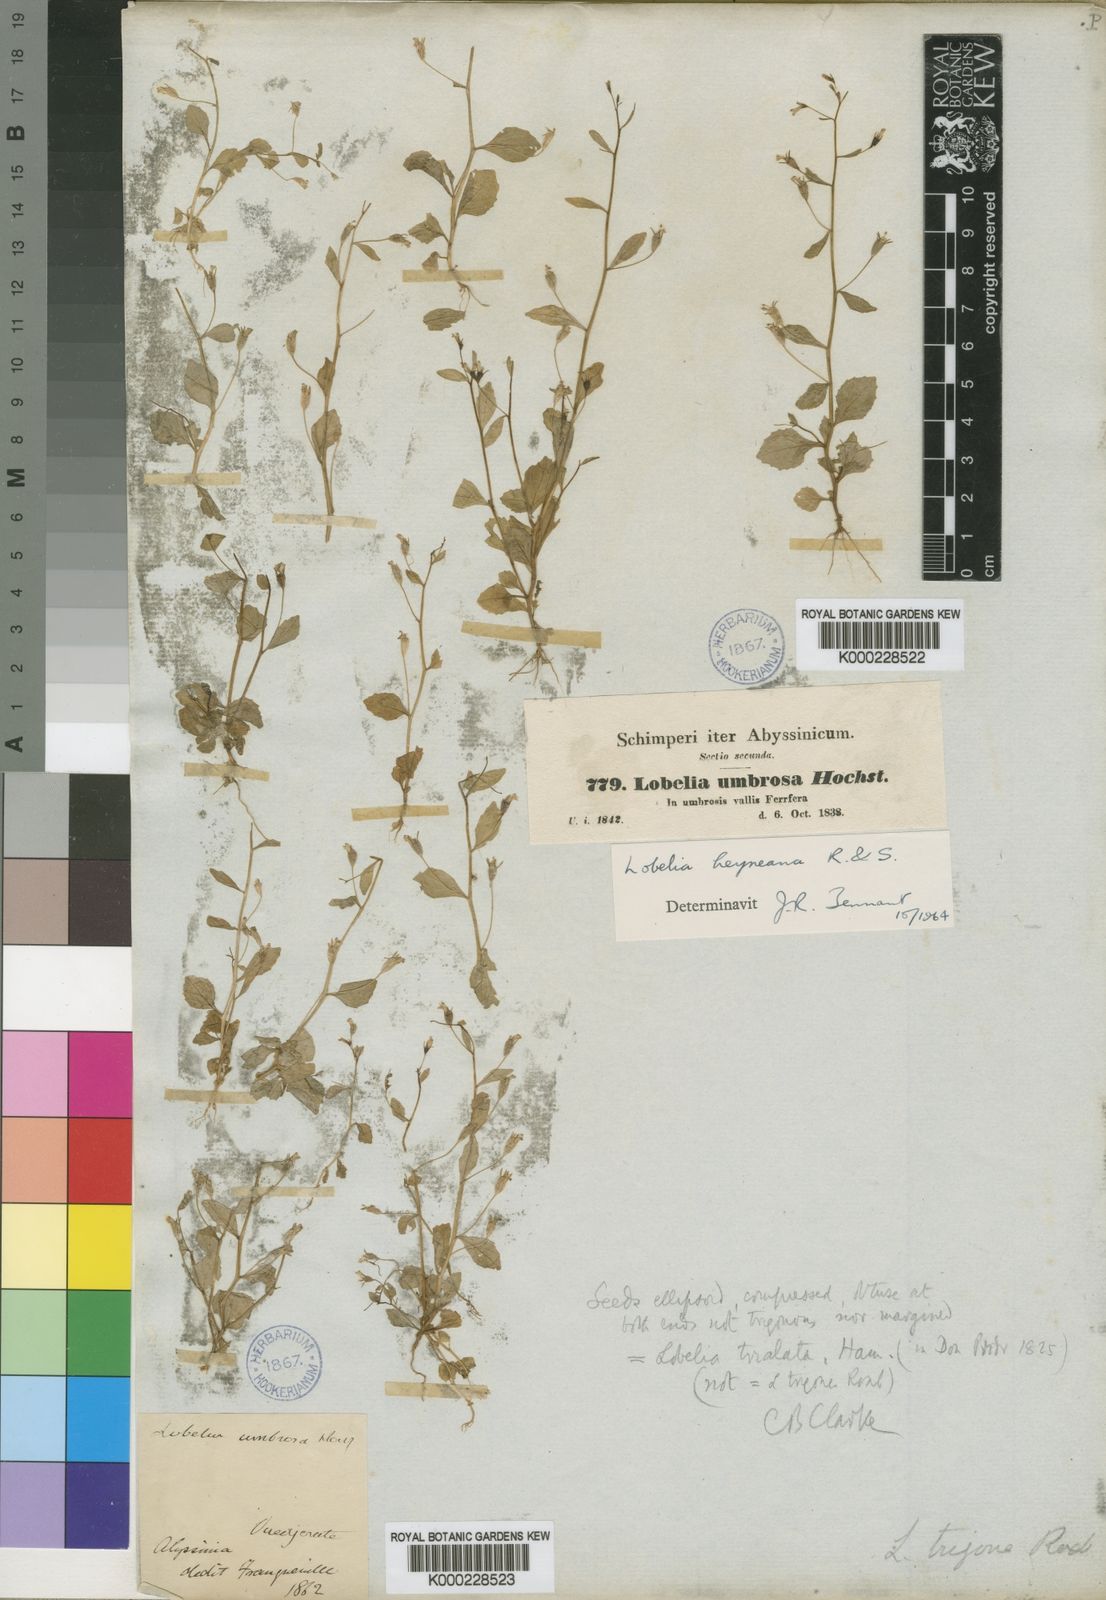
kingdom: Plantae
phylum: Tracheophyta
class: Magnoliopsida
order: Asterales
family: Campanulaceae
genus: Lobelia
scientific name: Lobelia
